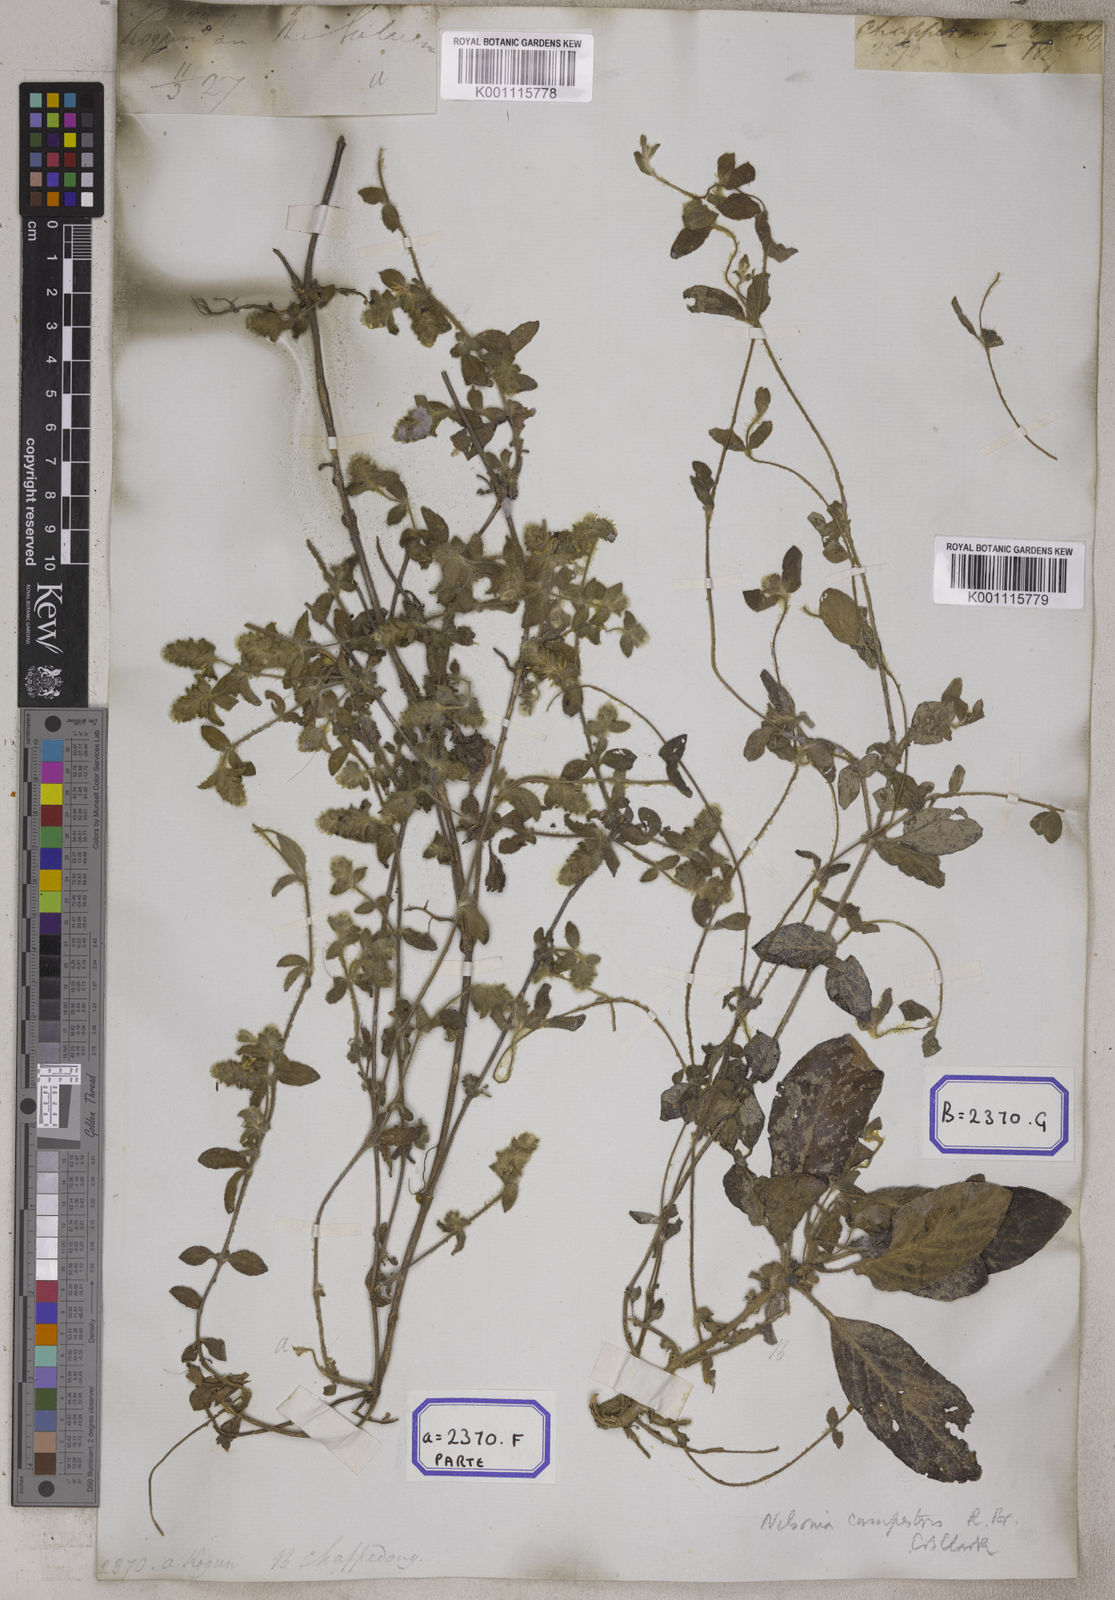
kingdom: Plantae
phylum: Tracheophyta
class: Magnoliopsida
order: Lamiales
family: Acanthaceae
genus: Nelsonia
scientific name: Nelsonia canescens
